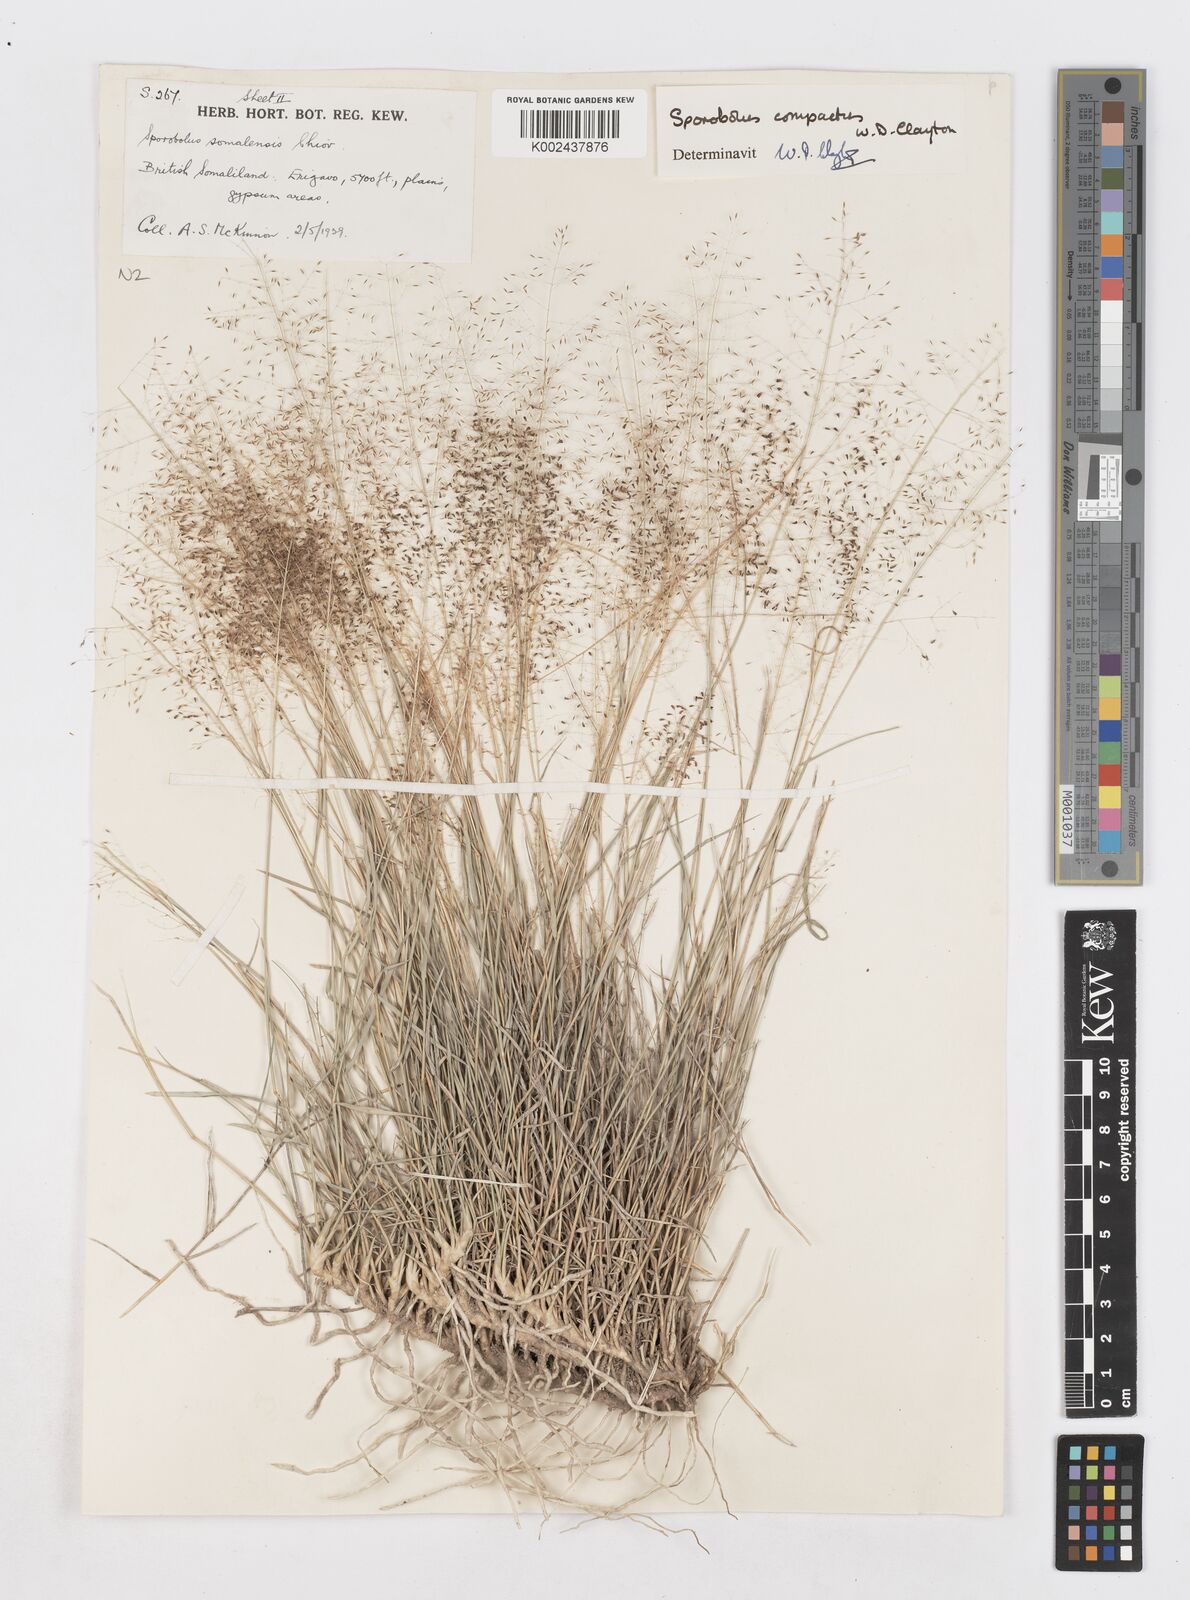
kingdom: Plantae
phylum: Tracheophyta
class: Liliopsida
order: Poales
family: Poaceae
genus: Sporobolus
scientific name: Sporobolus compactus
